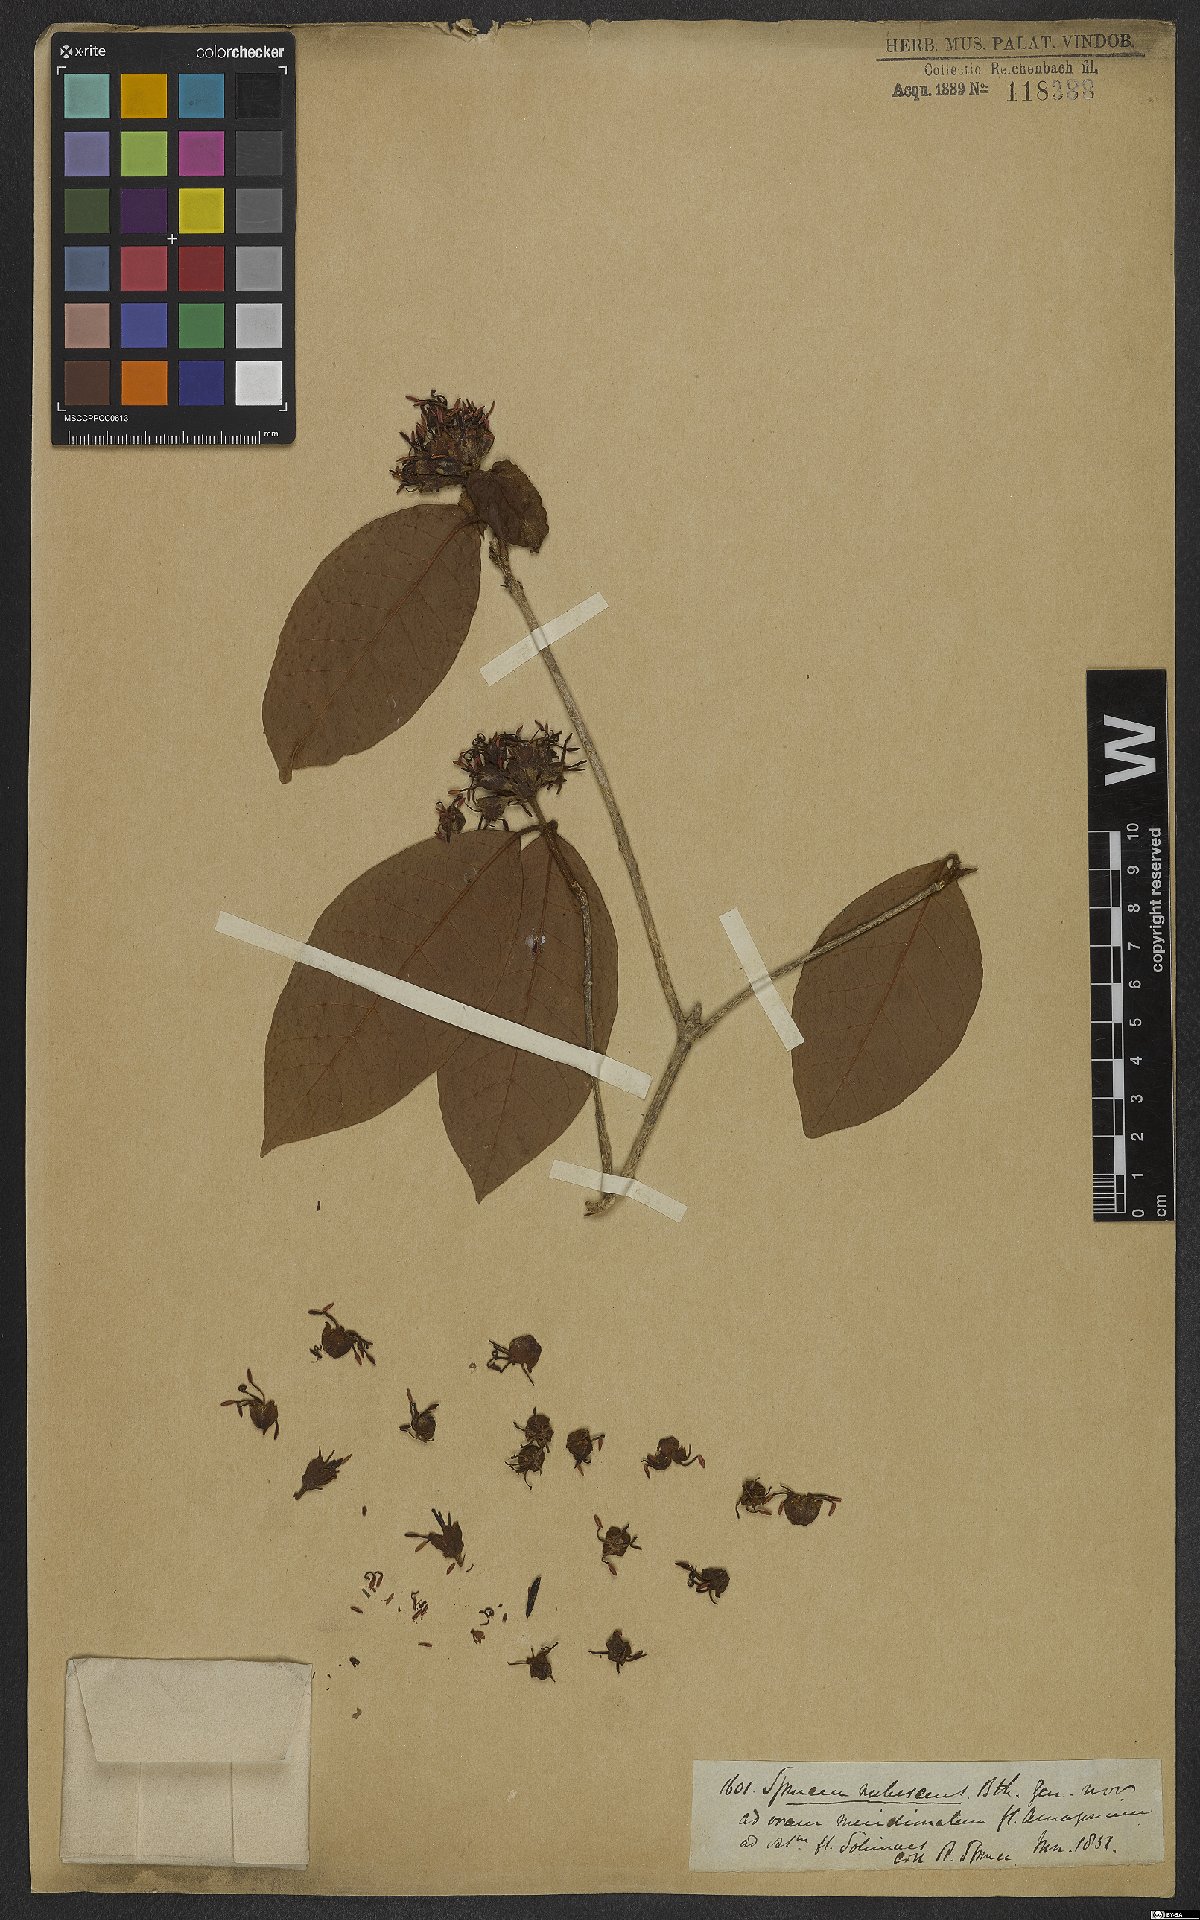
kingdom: Plantae
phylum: Tracheophyta
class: Magnoliopsida
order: Gentianales
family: Rubiaceae
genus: Simira
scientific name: Simira tinctoria
